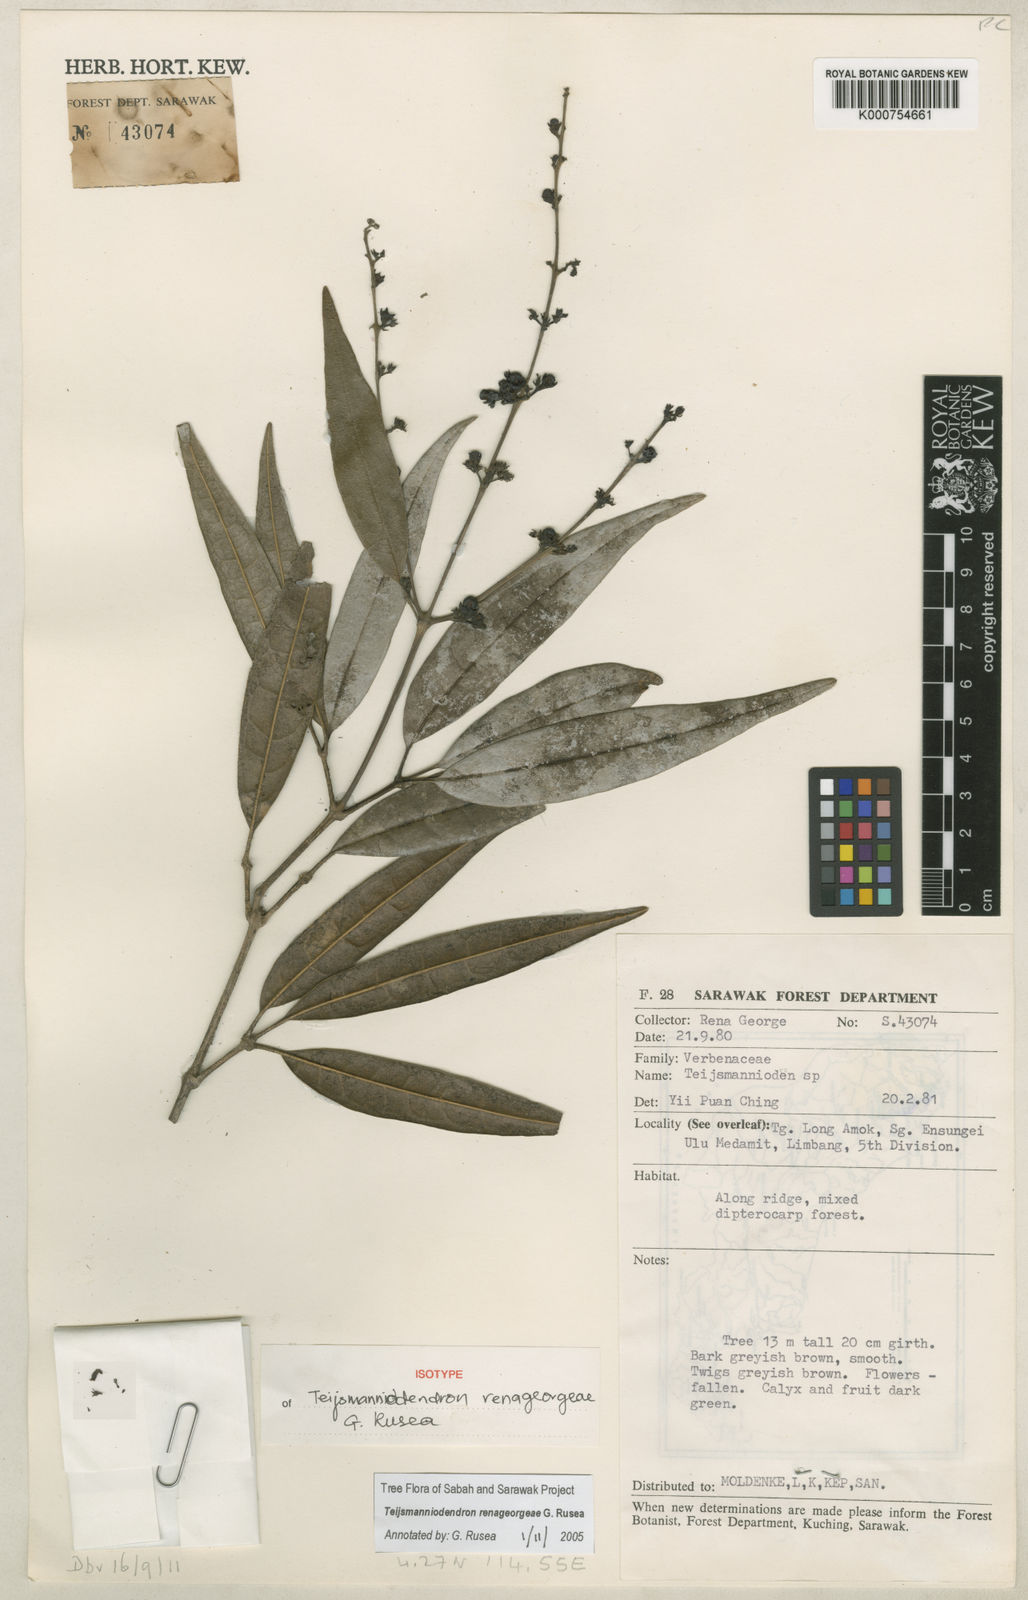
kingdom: Plantae
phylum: Tracheophyta
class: Magnoliopsida
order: Lamiales
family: Lamiaceae
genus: Teijsmanniodendron
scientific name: Teijsmanniodendron renageorgeae
